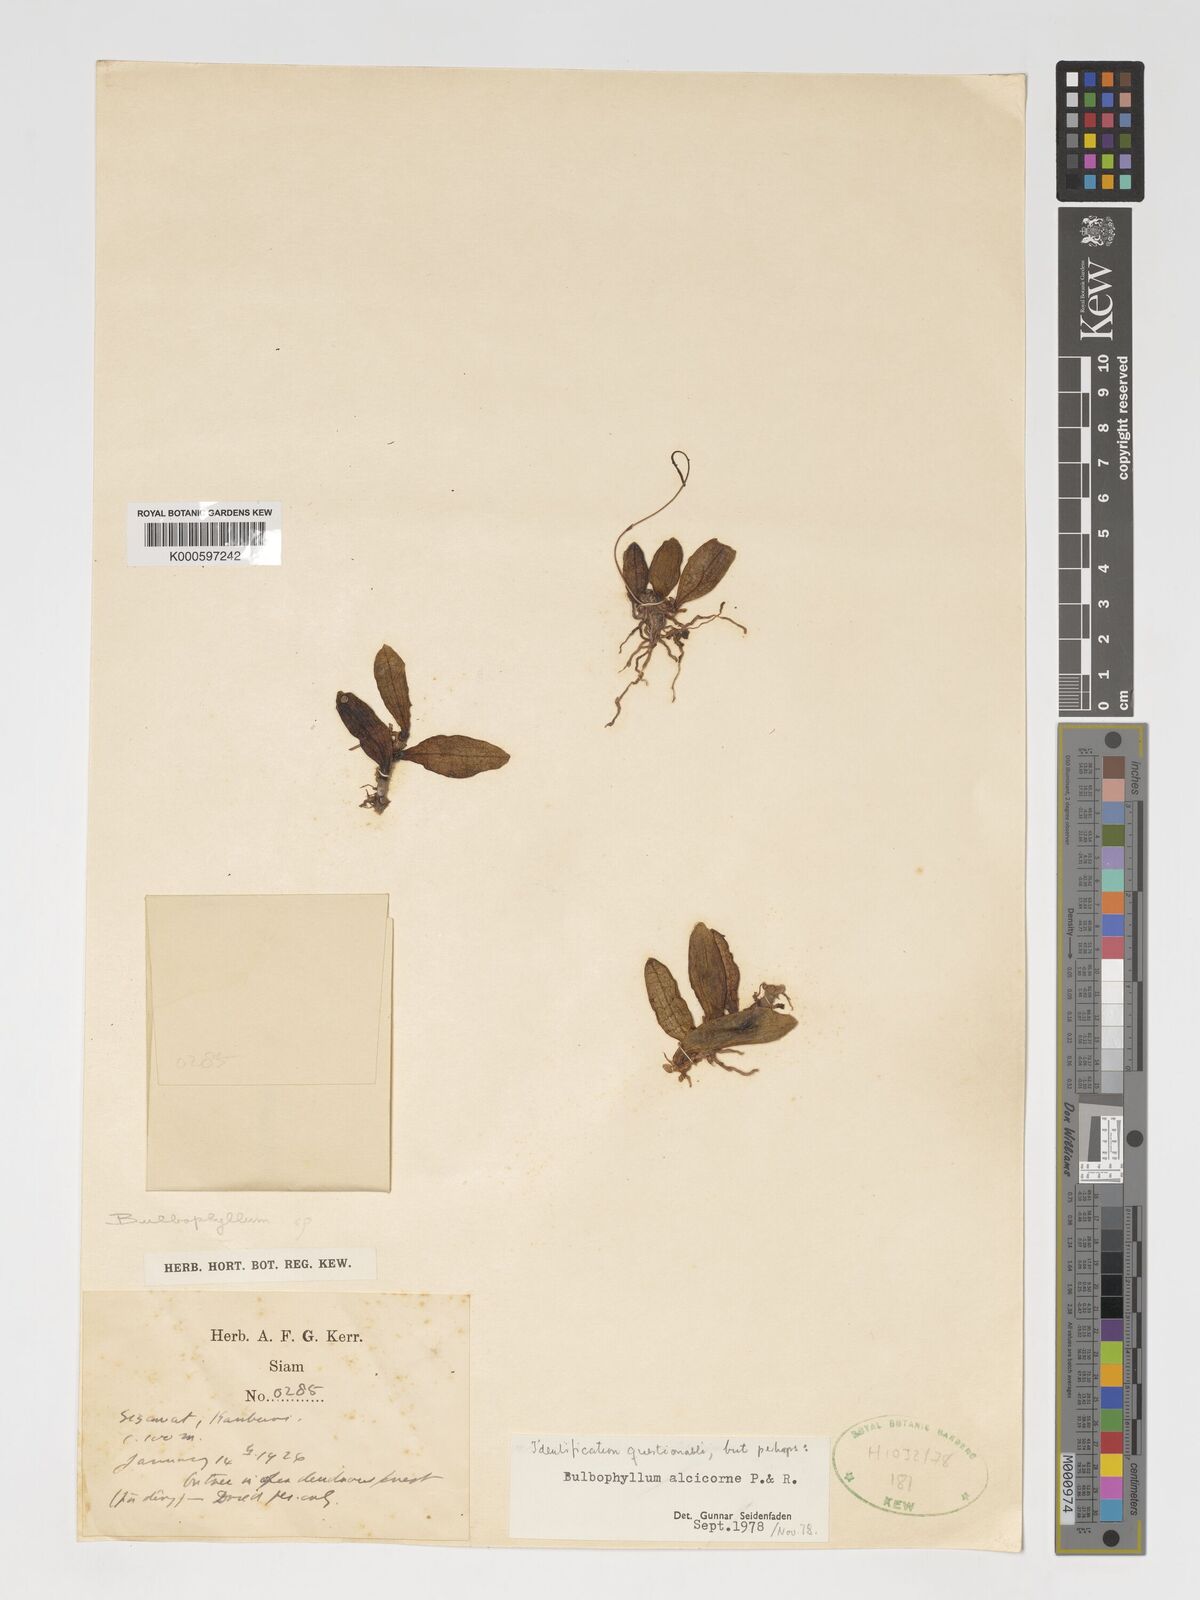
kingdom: Plantae
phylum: Tracheophyta
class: Liliopsida
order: Asparagales
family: Orchidaceae
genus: Bulbophyllum
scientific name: Bulbophyllum alcicorne
